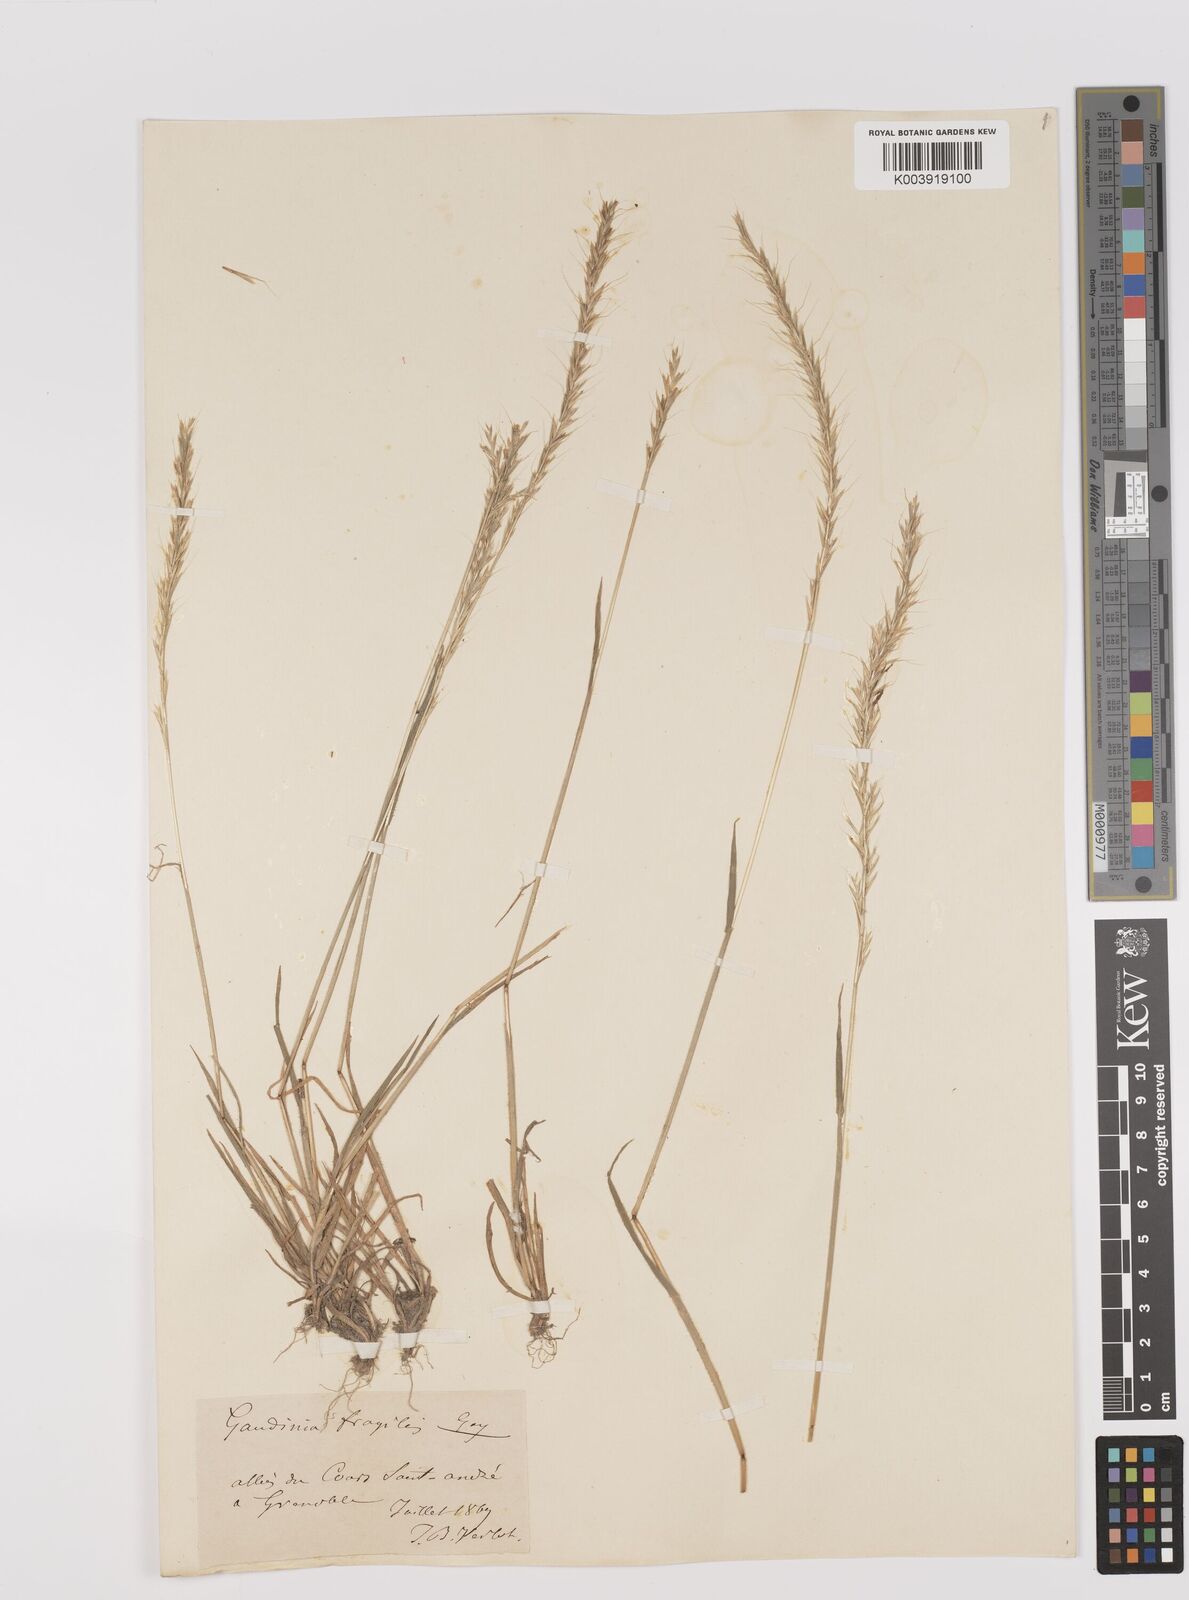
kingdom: Plantae
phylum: Tracheophyta
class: Liliopsida
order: Poales
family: Poaceae
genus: Gaudinia
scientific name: Gaudinia fragilis
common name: French oat-grass
